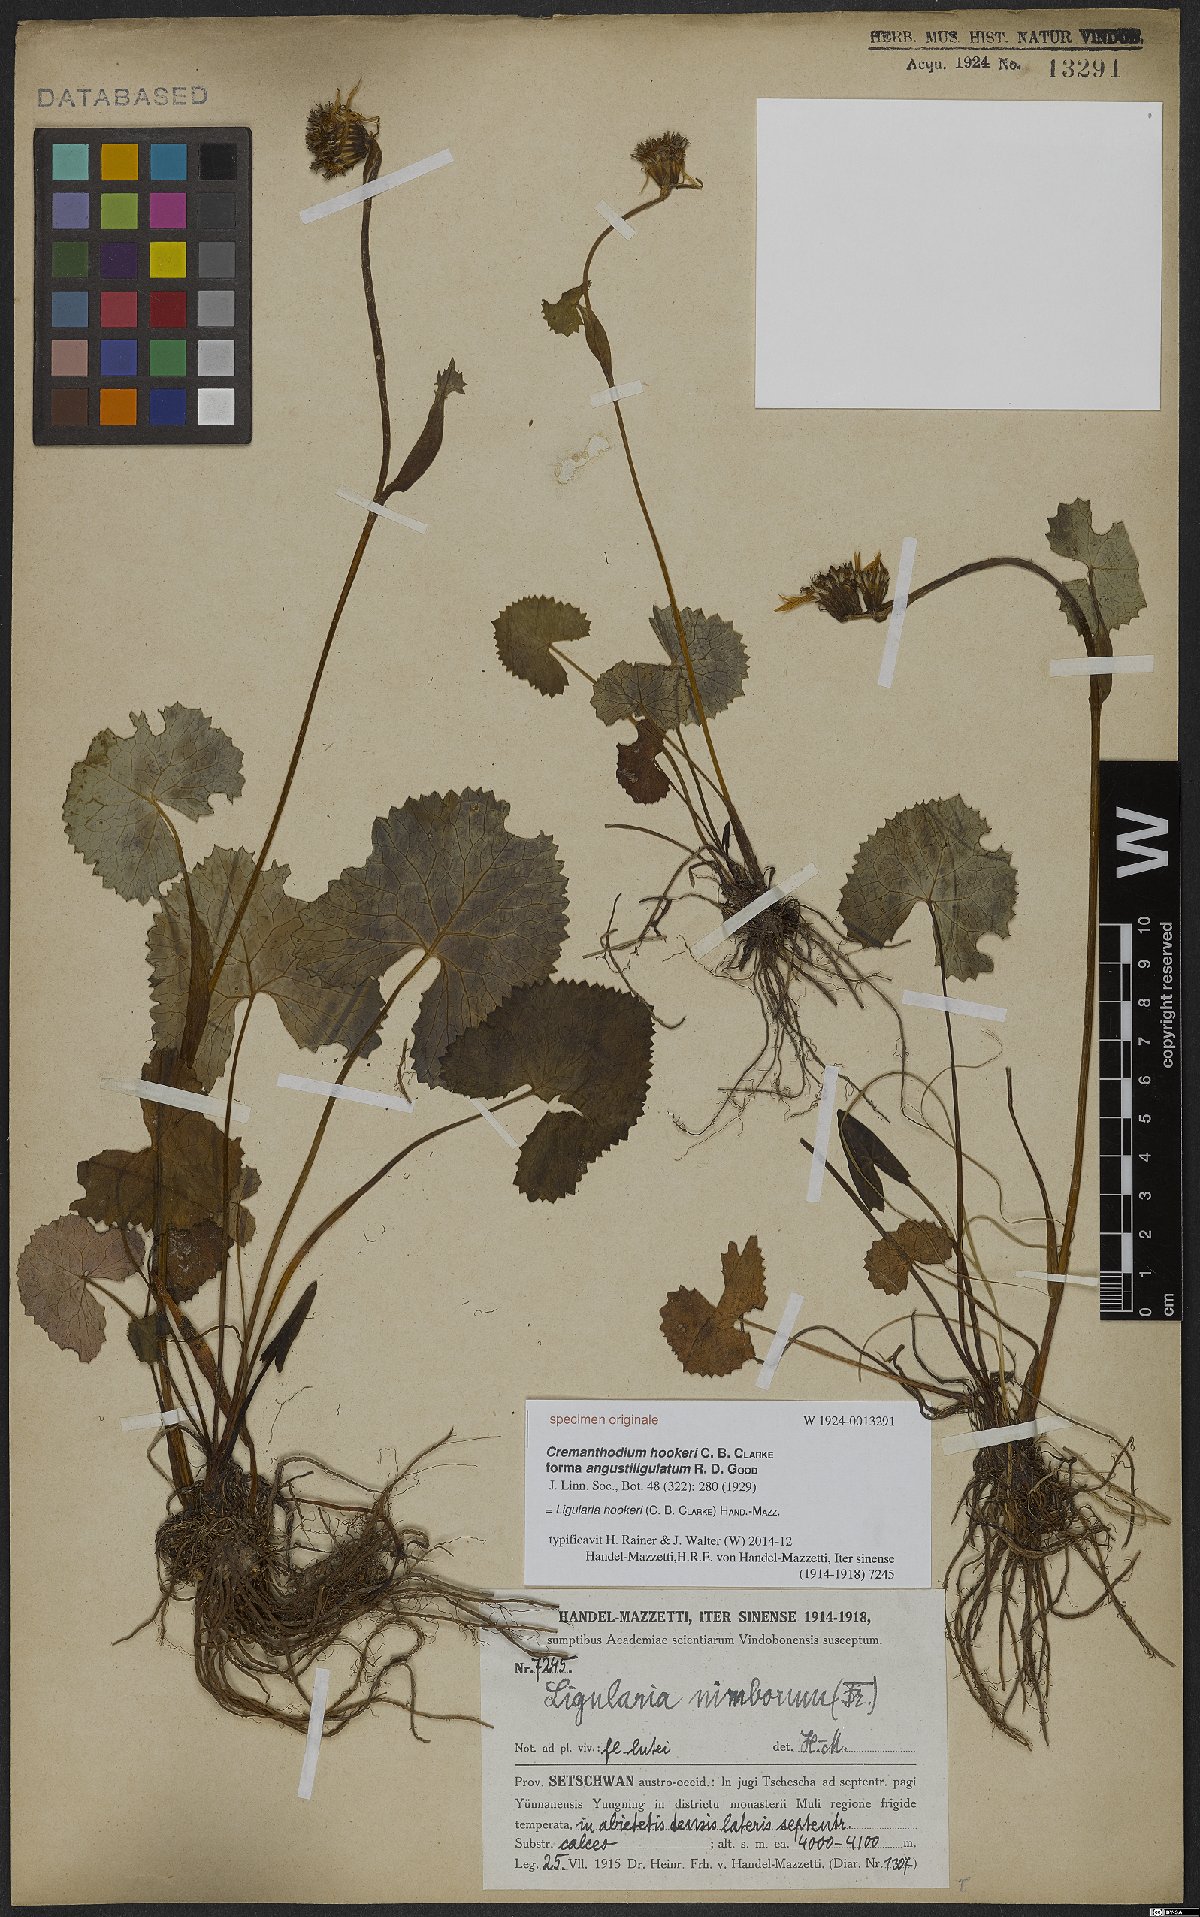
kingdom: Plantae
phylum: Tracheophyta
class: Magnoliopsida
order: Asterales
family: Asteraceae
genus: Ligularia
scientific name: Ligularia hookeri
